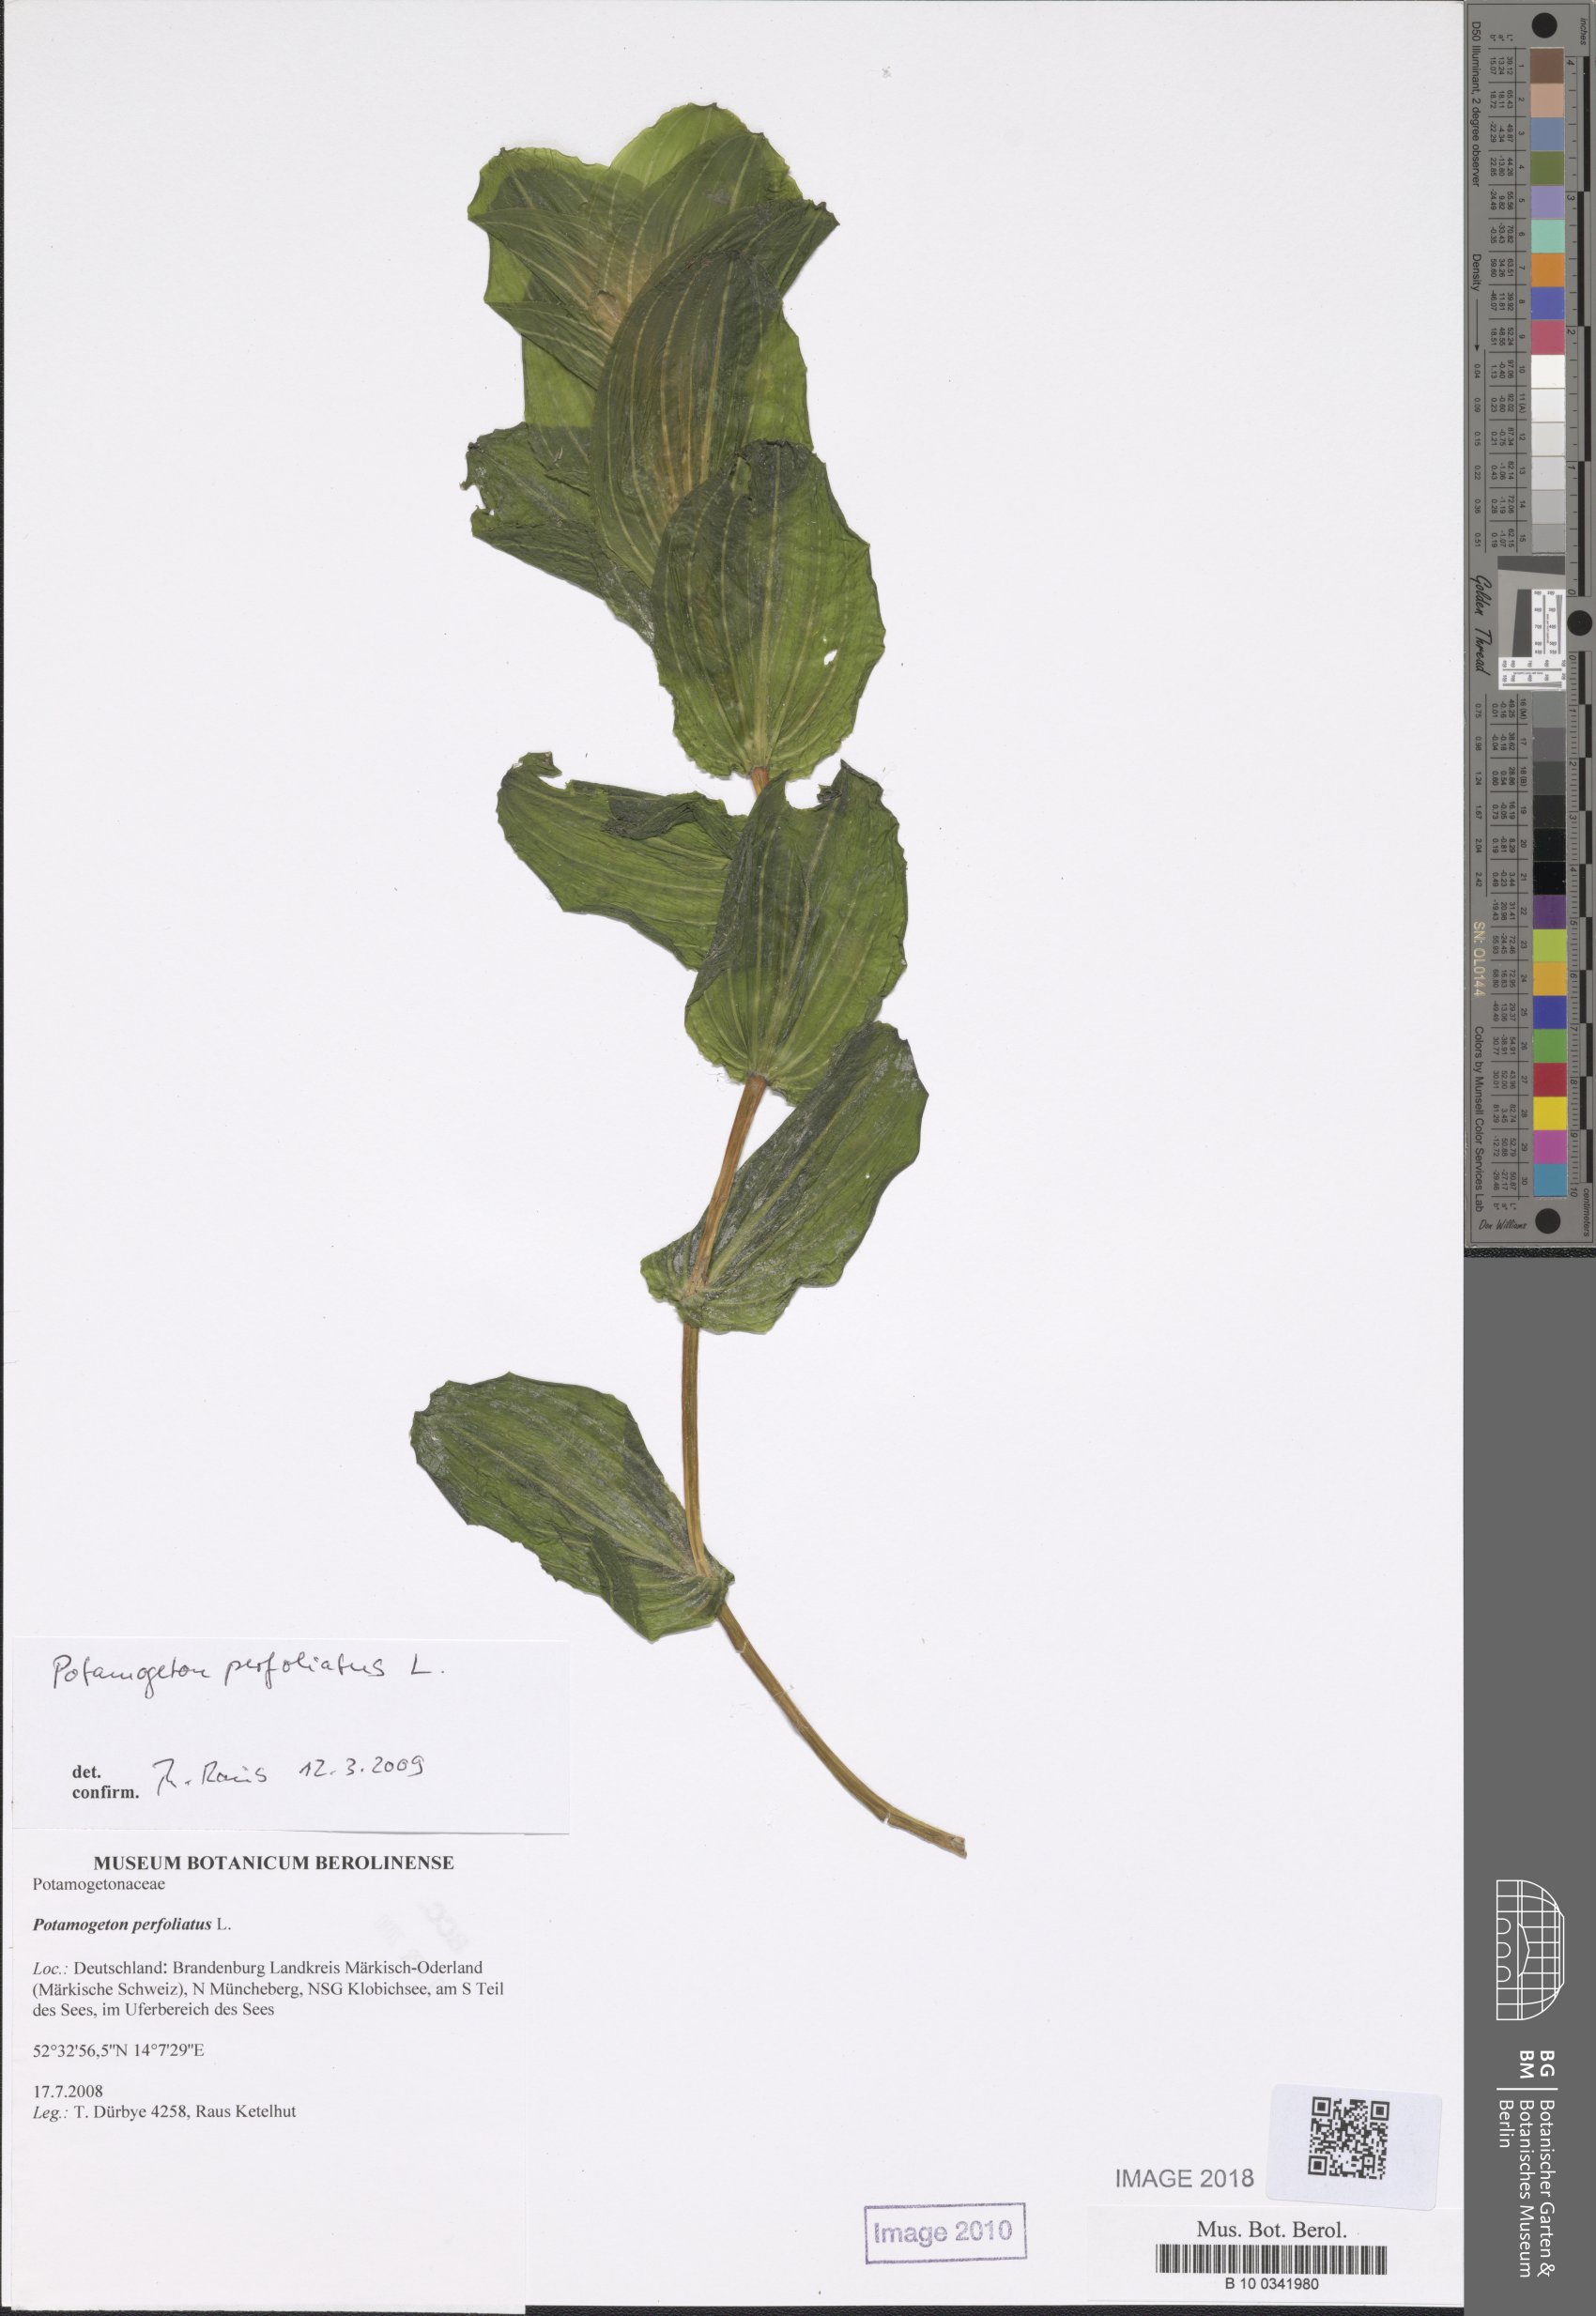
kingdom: Plantae
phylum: Tracheophyta
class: Liliopsida
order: Alismatales
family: Potamogetonaceae
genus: Potamogeton
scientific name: Potamogeton perfoliatus
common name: Perfoliate pondweed
